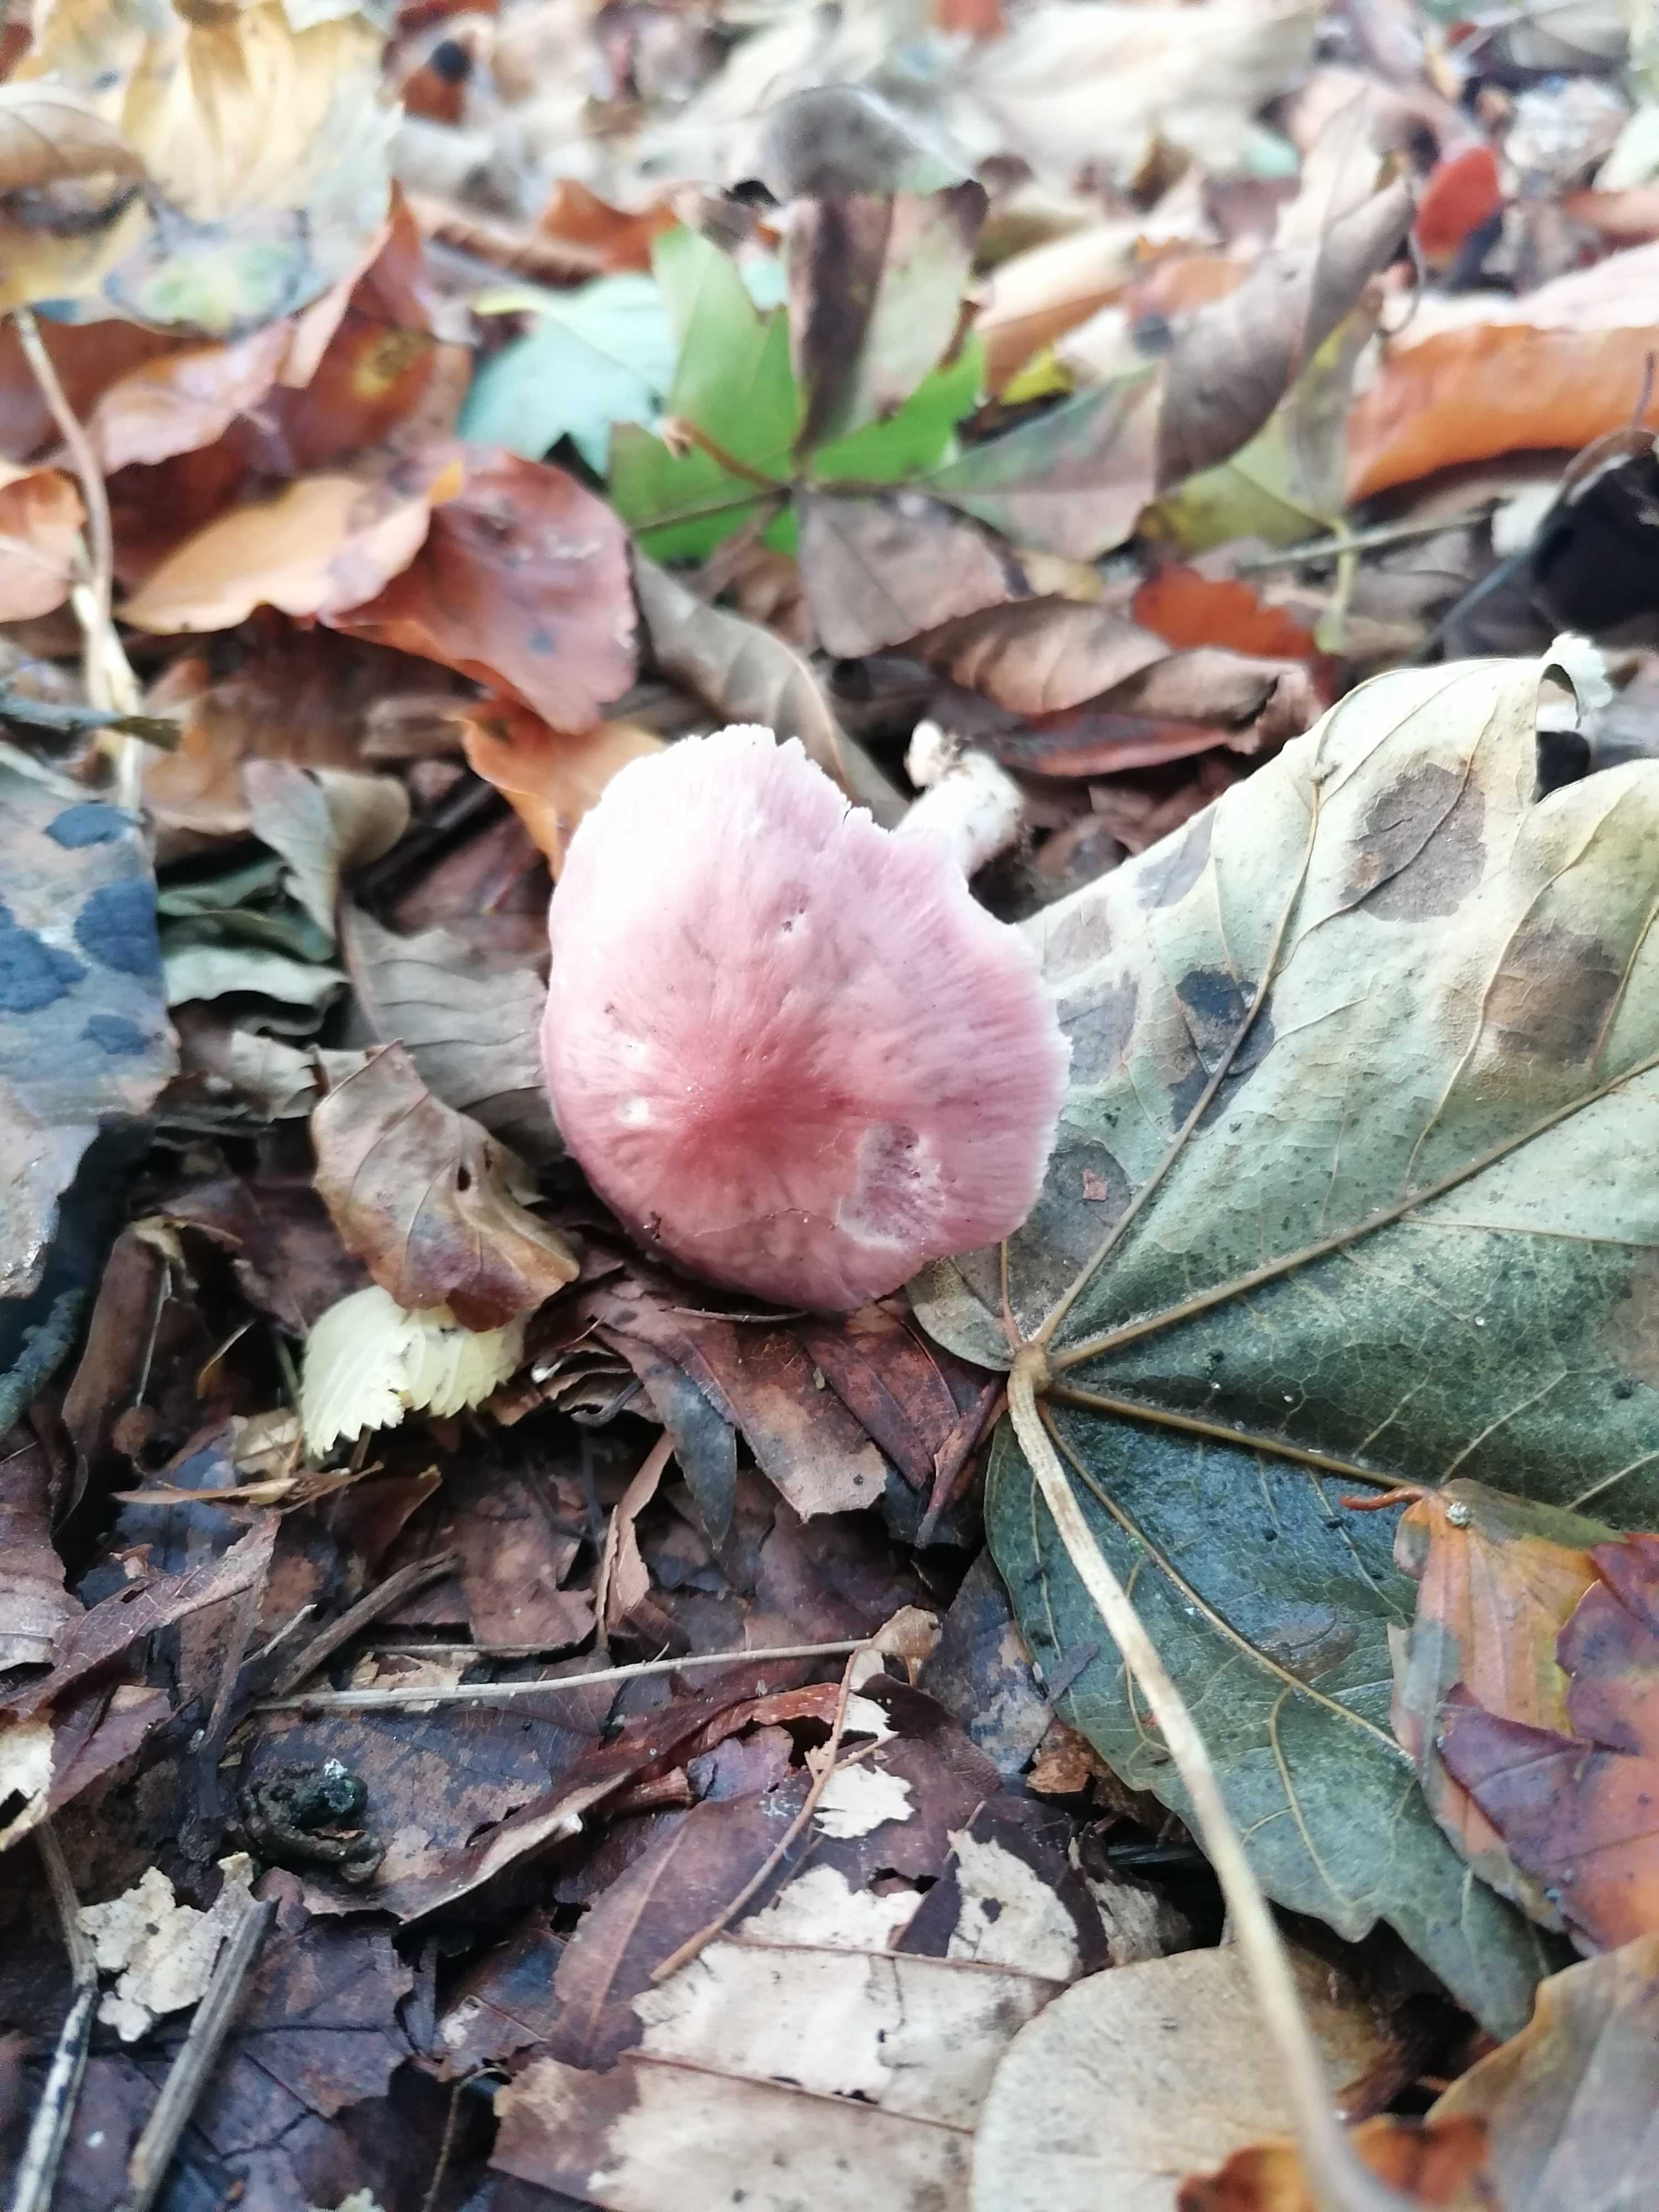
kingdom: Fungi
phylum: Basidiomycota
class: Agaricomycetes
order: Agaricales
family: Mycenaceae
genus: Mycena
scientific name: Mycena rosea
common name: rosa huesvamp
